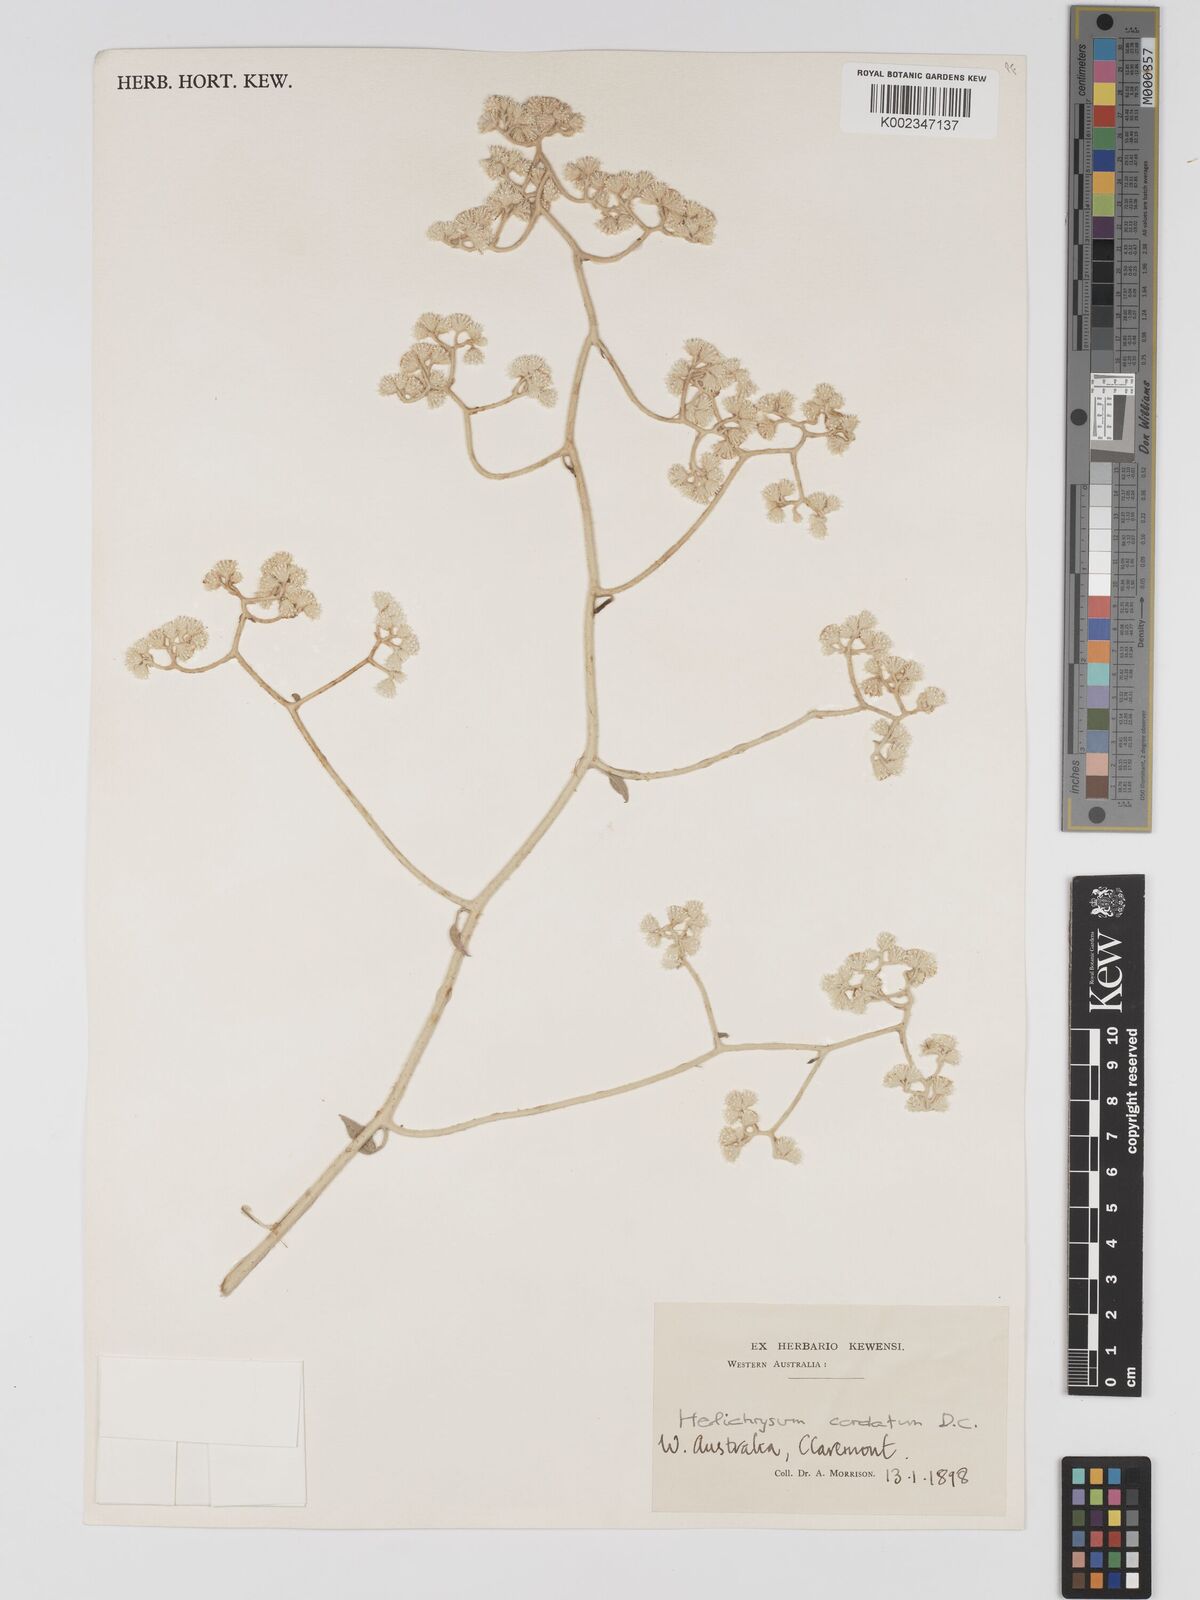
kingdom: Plantae
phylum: Tracheophyta
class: Magnoliopsida
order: Asterales
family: Asteraceae
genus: Ozothamnus
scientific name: Ozothamnus
